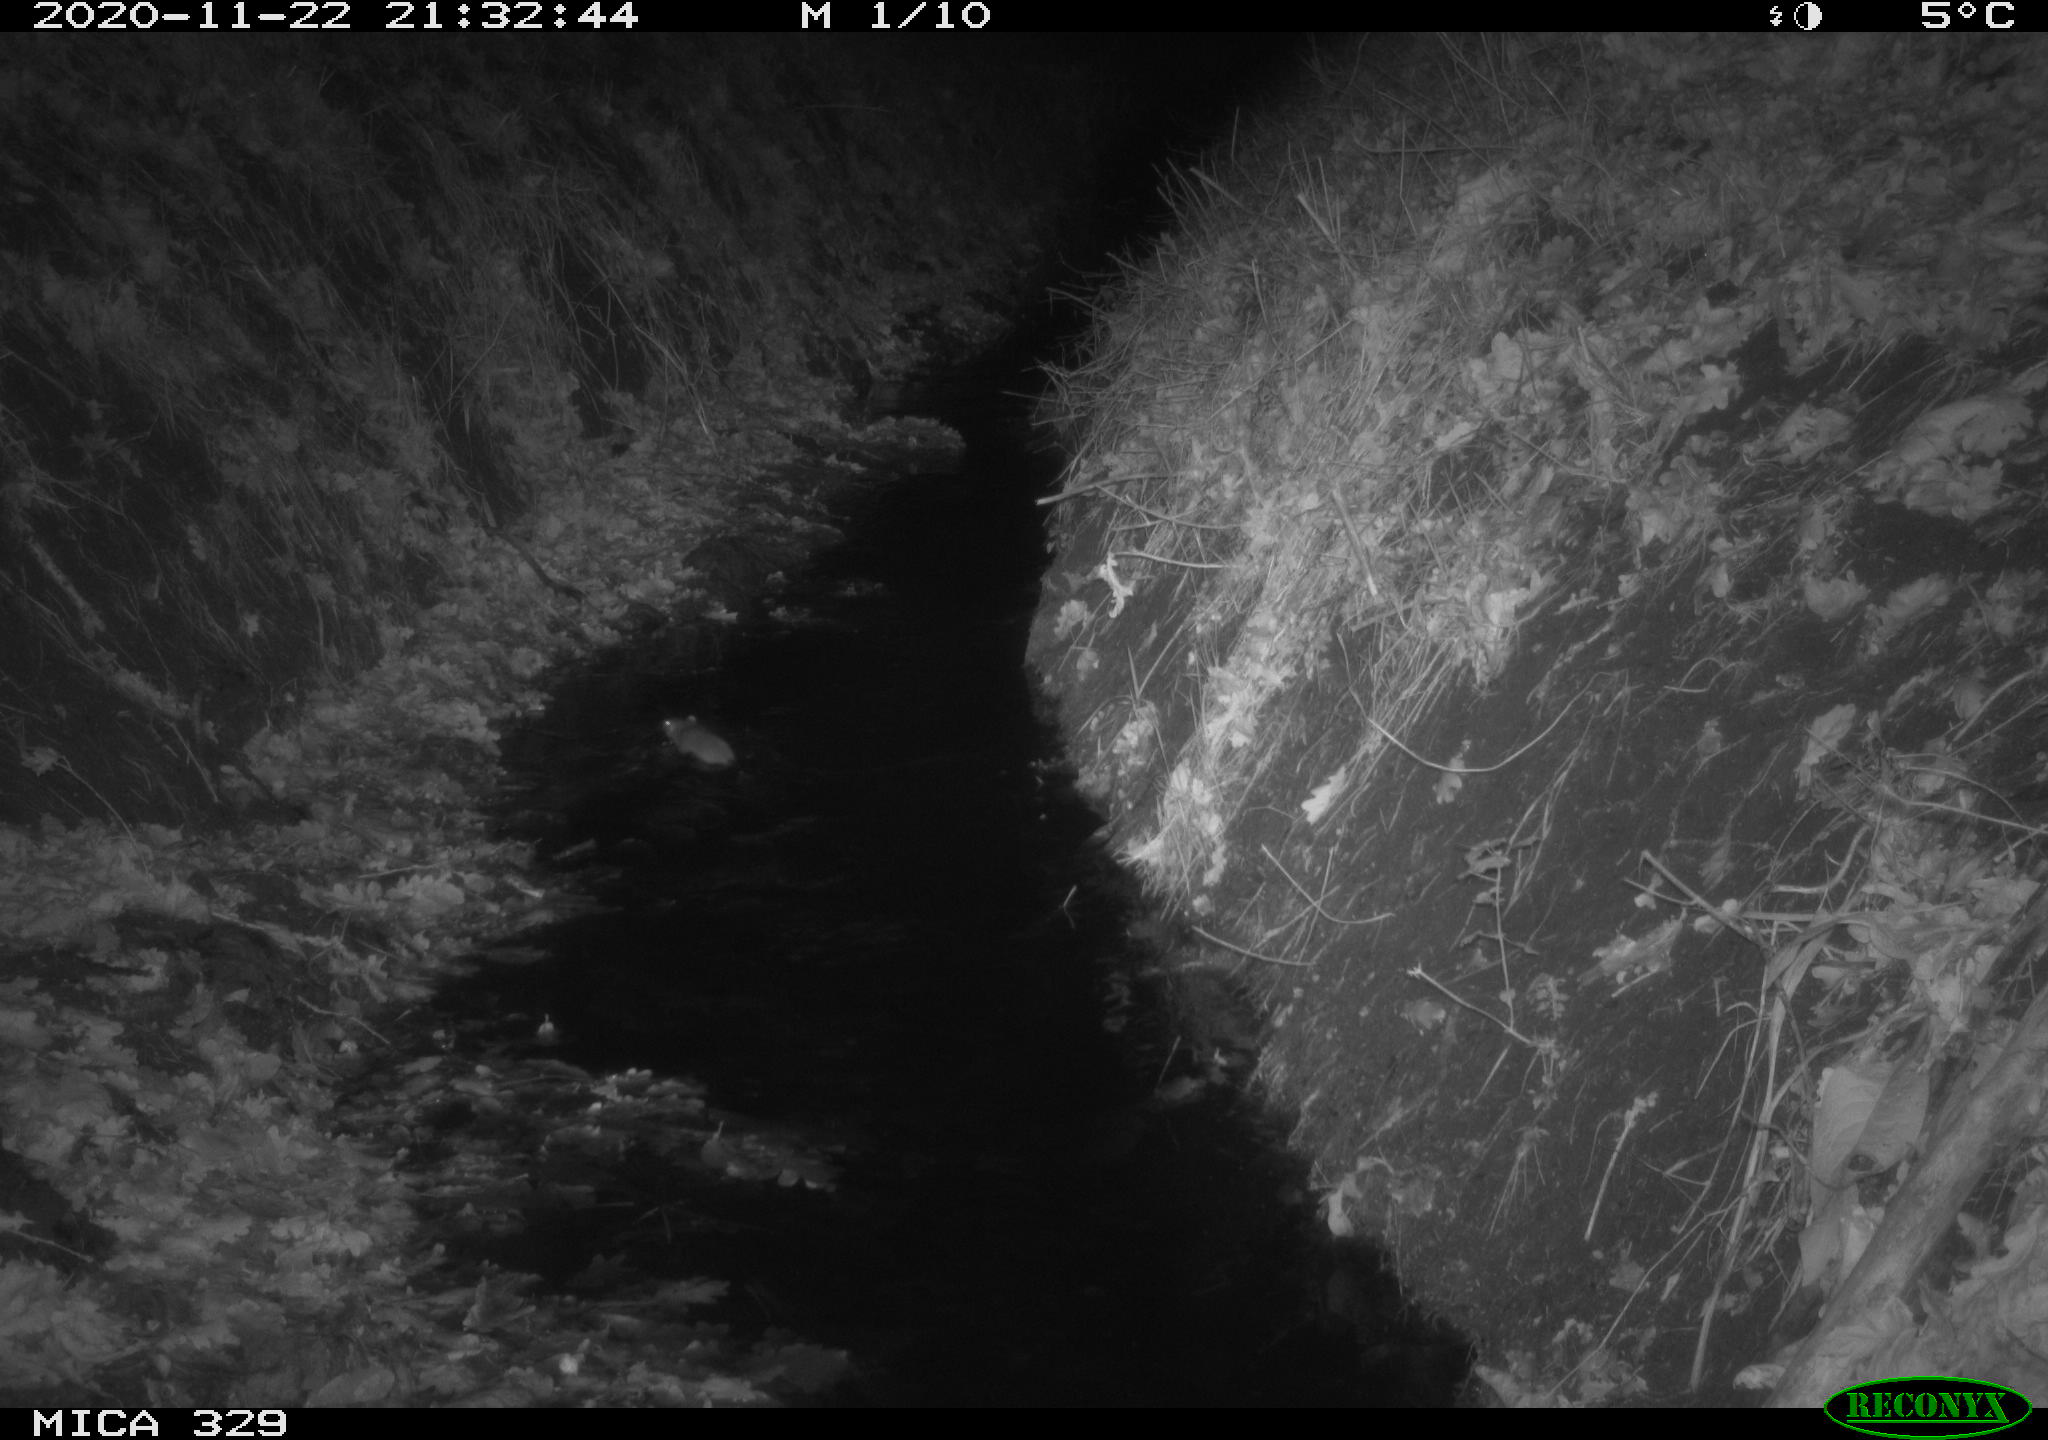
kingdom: Animalia
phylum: Chordata
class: Mammalia
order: Rodentia
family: Muridae
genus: Rattus
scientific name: Rattus norvegicus
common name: Brown rat
